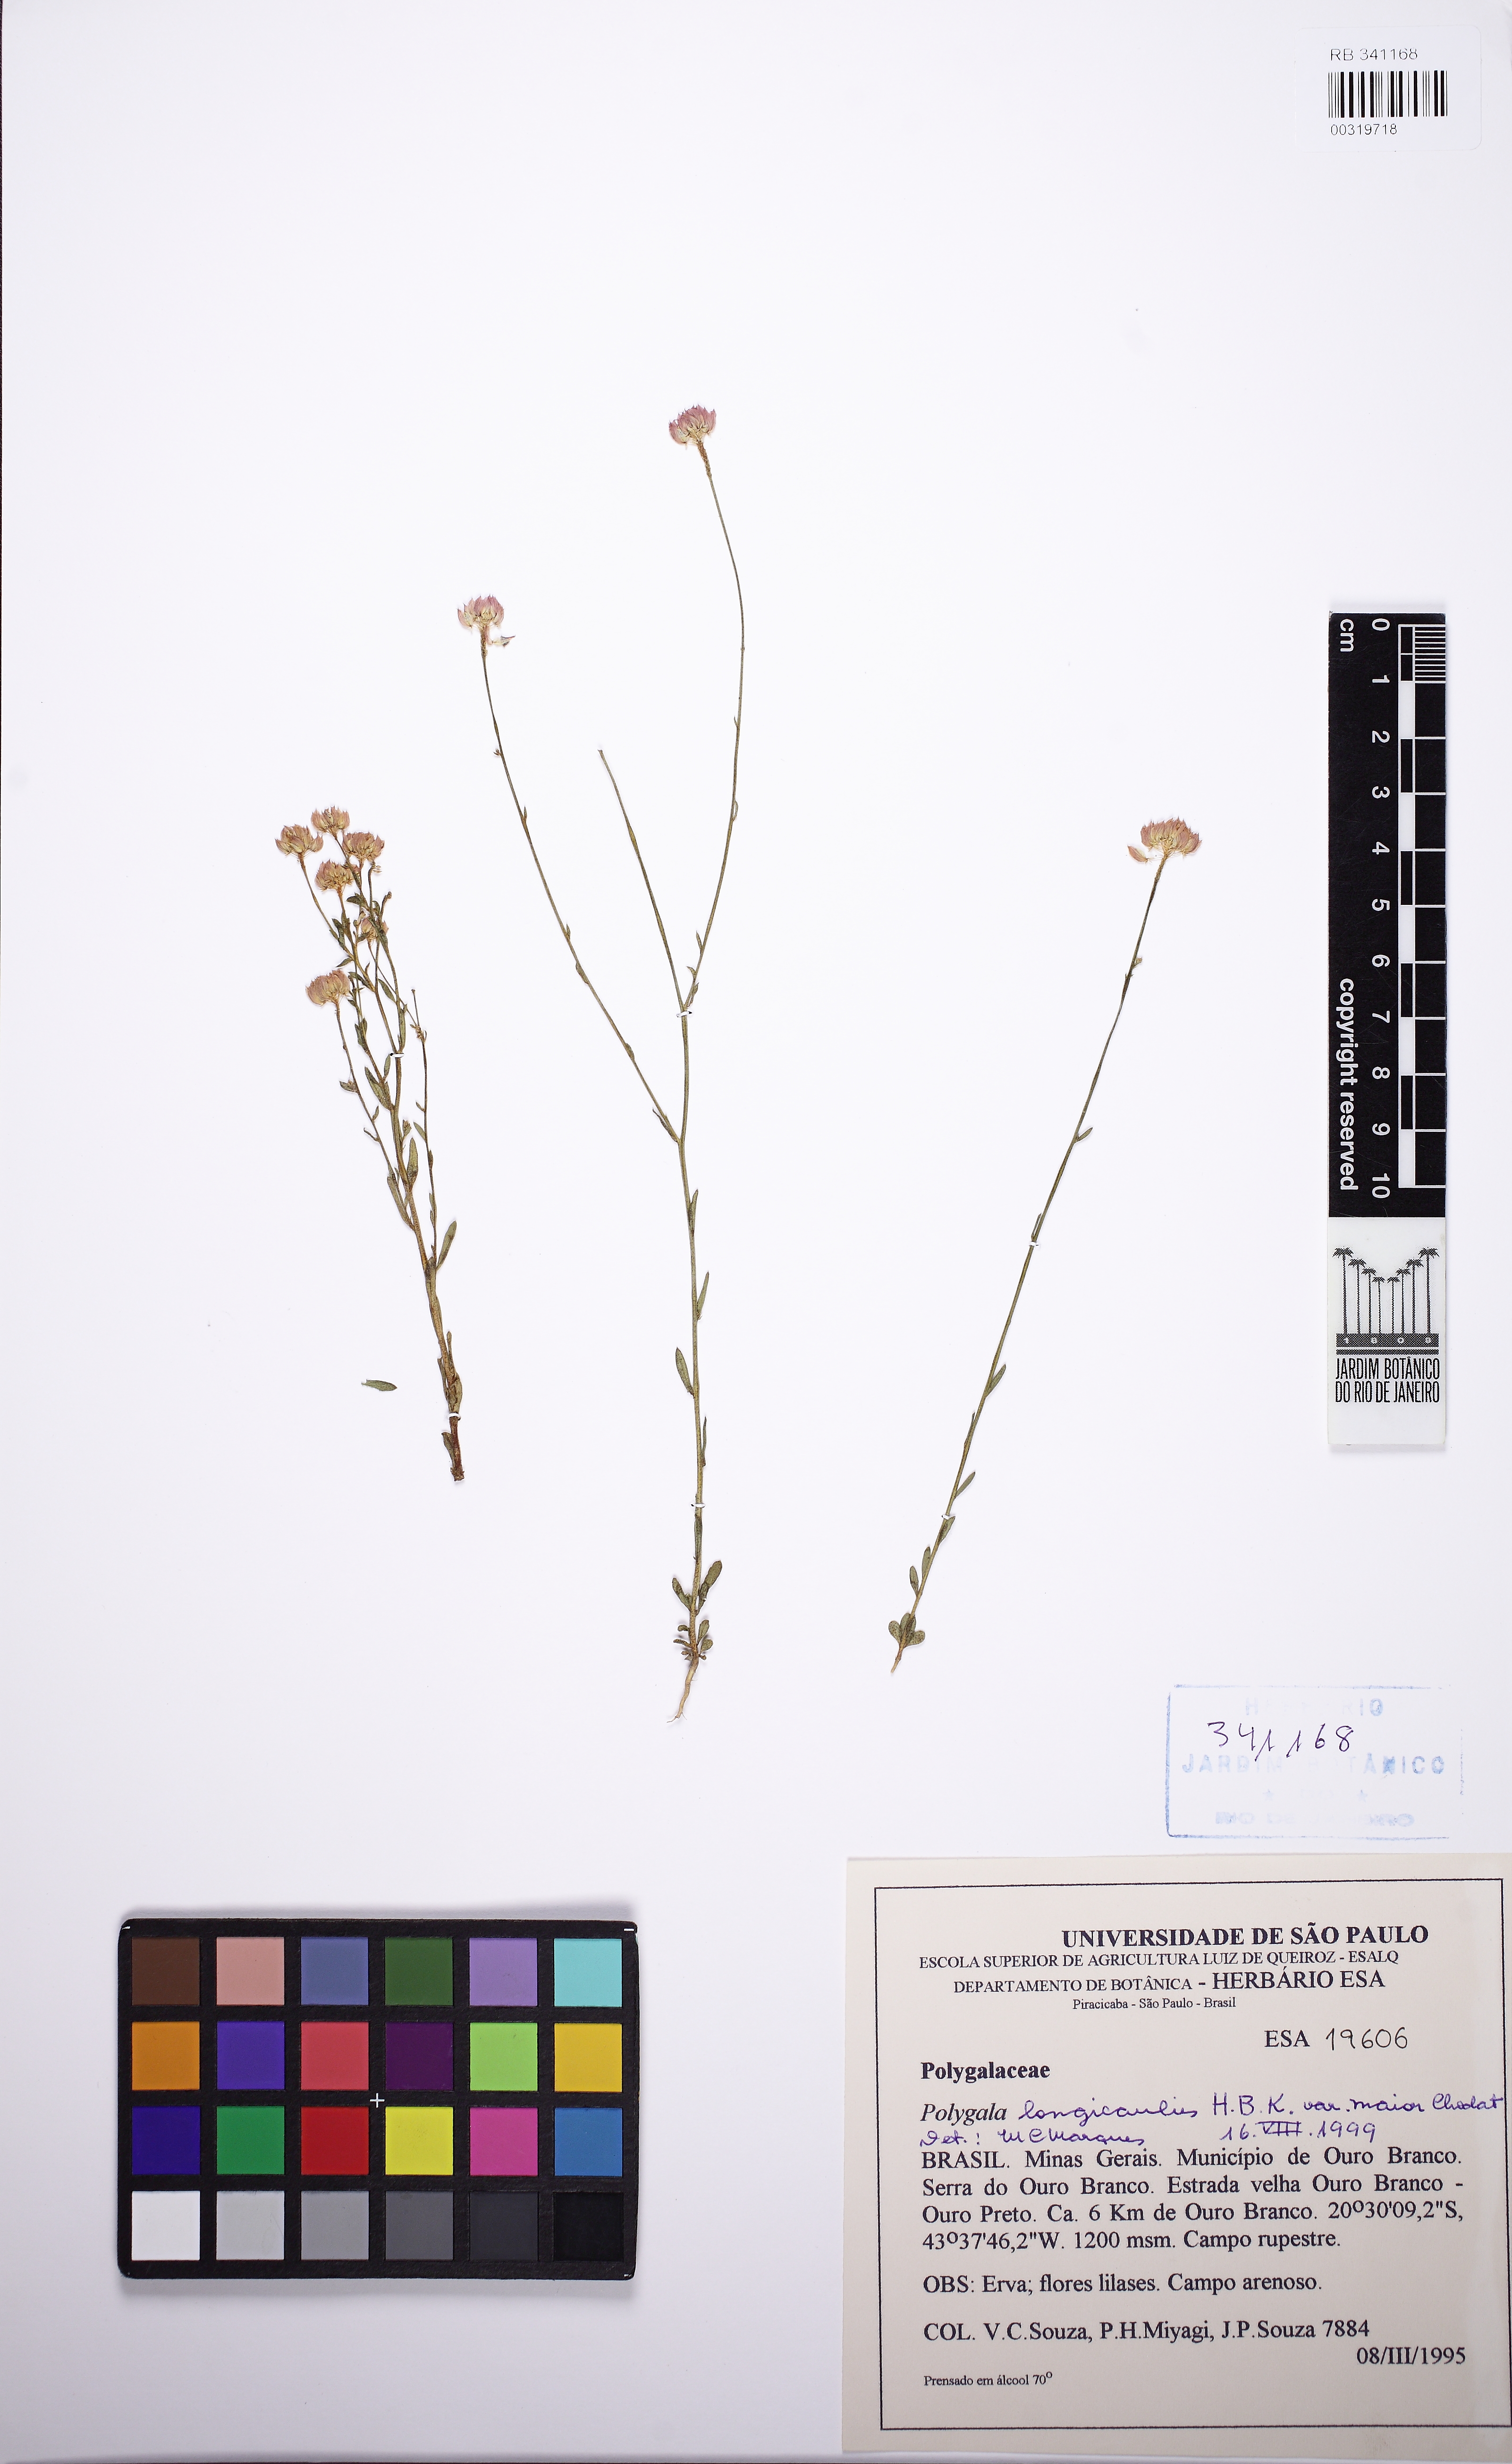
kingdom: Plantae
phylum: Tracheophyta
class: Magnoliopsida
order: Fabales
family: Polygalaceae
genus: Polygala
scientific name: Polygala longicaulis
